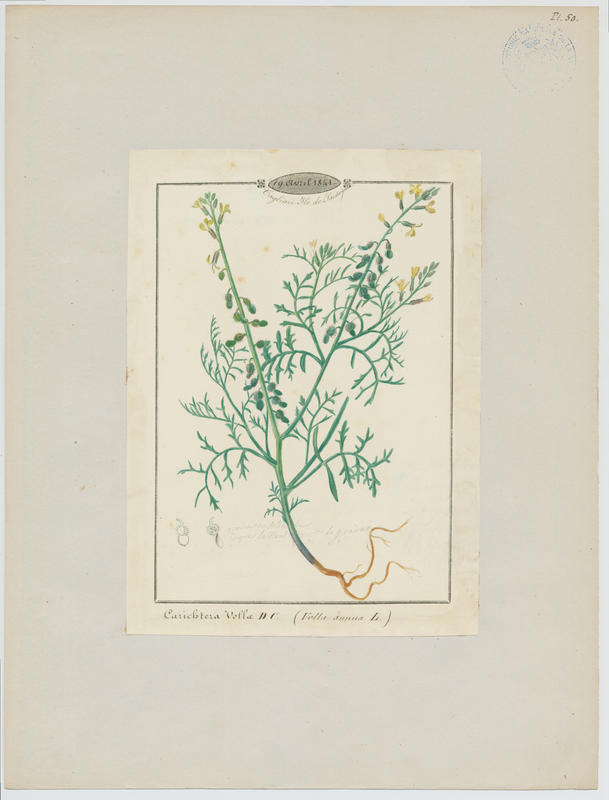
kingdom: Plantae
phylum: Tracheophyta
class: Magnoliopsida
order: Brassicales
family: Brassicaceae
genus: Carrichtera
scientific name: Carrichtera annua
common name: Cress rocket
